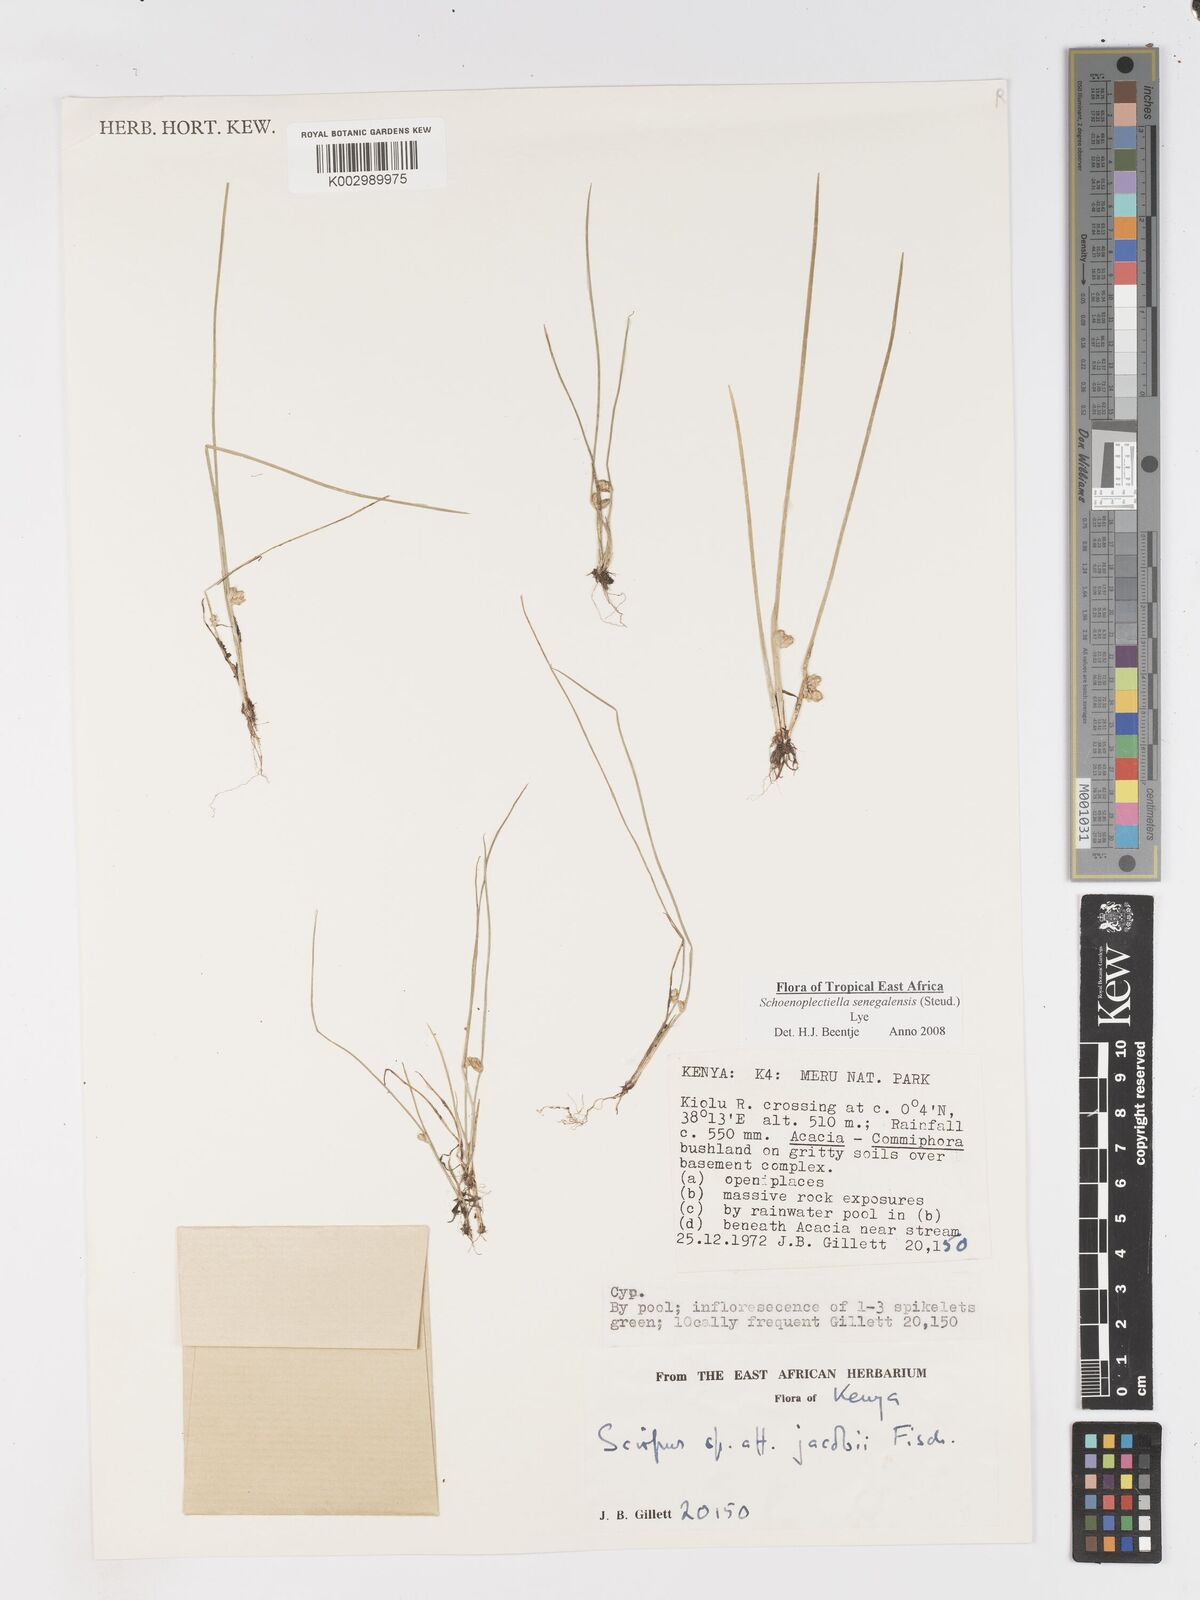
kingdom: Plantae
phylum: Tracheophyta
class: Liliopsida
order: Poales
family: Cyperaceae
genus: Schoenoplectiella
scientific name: Schoenoplectiella senegalensis
